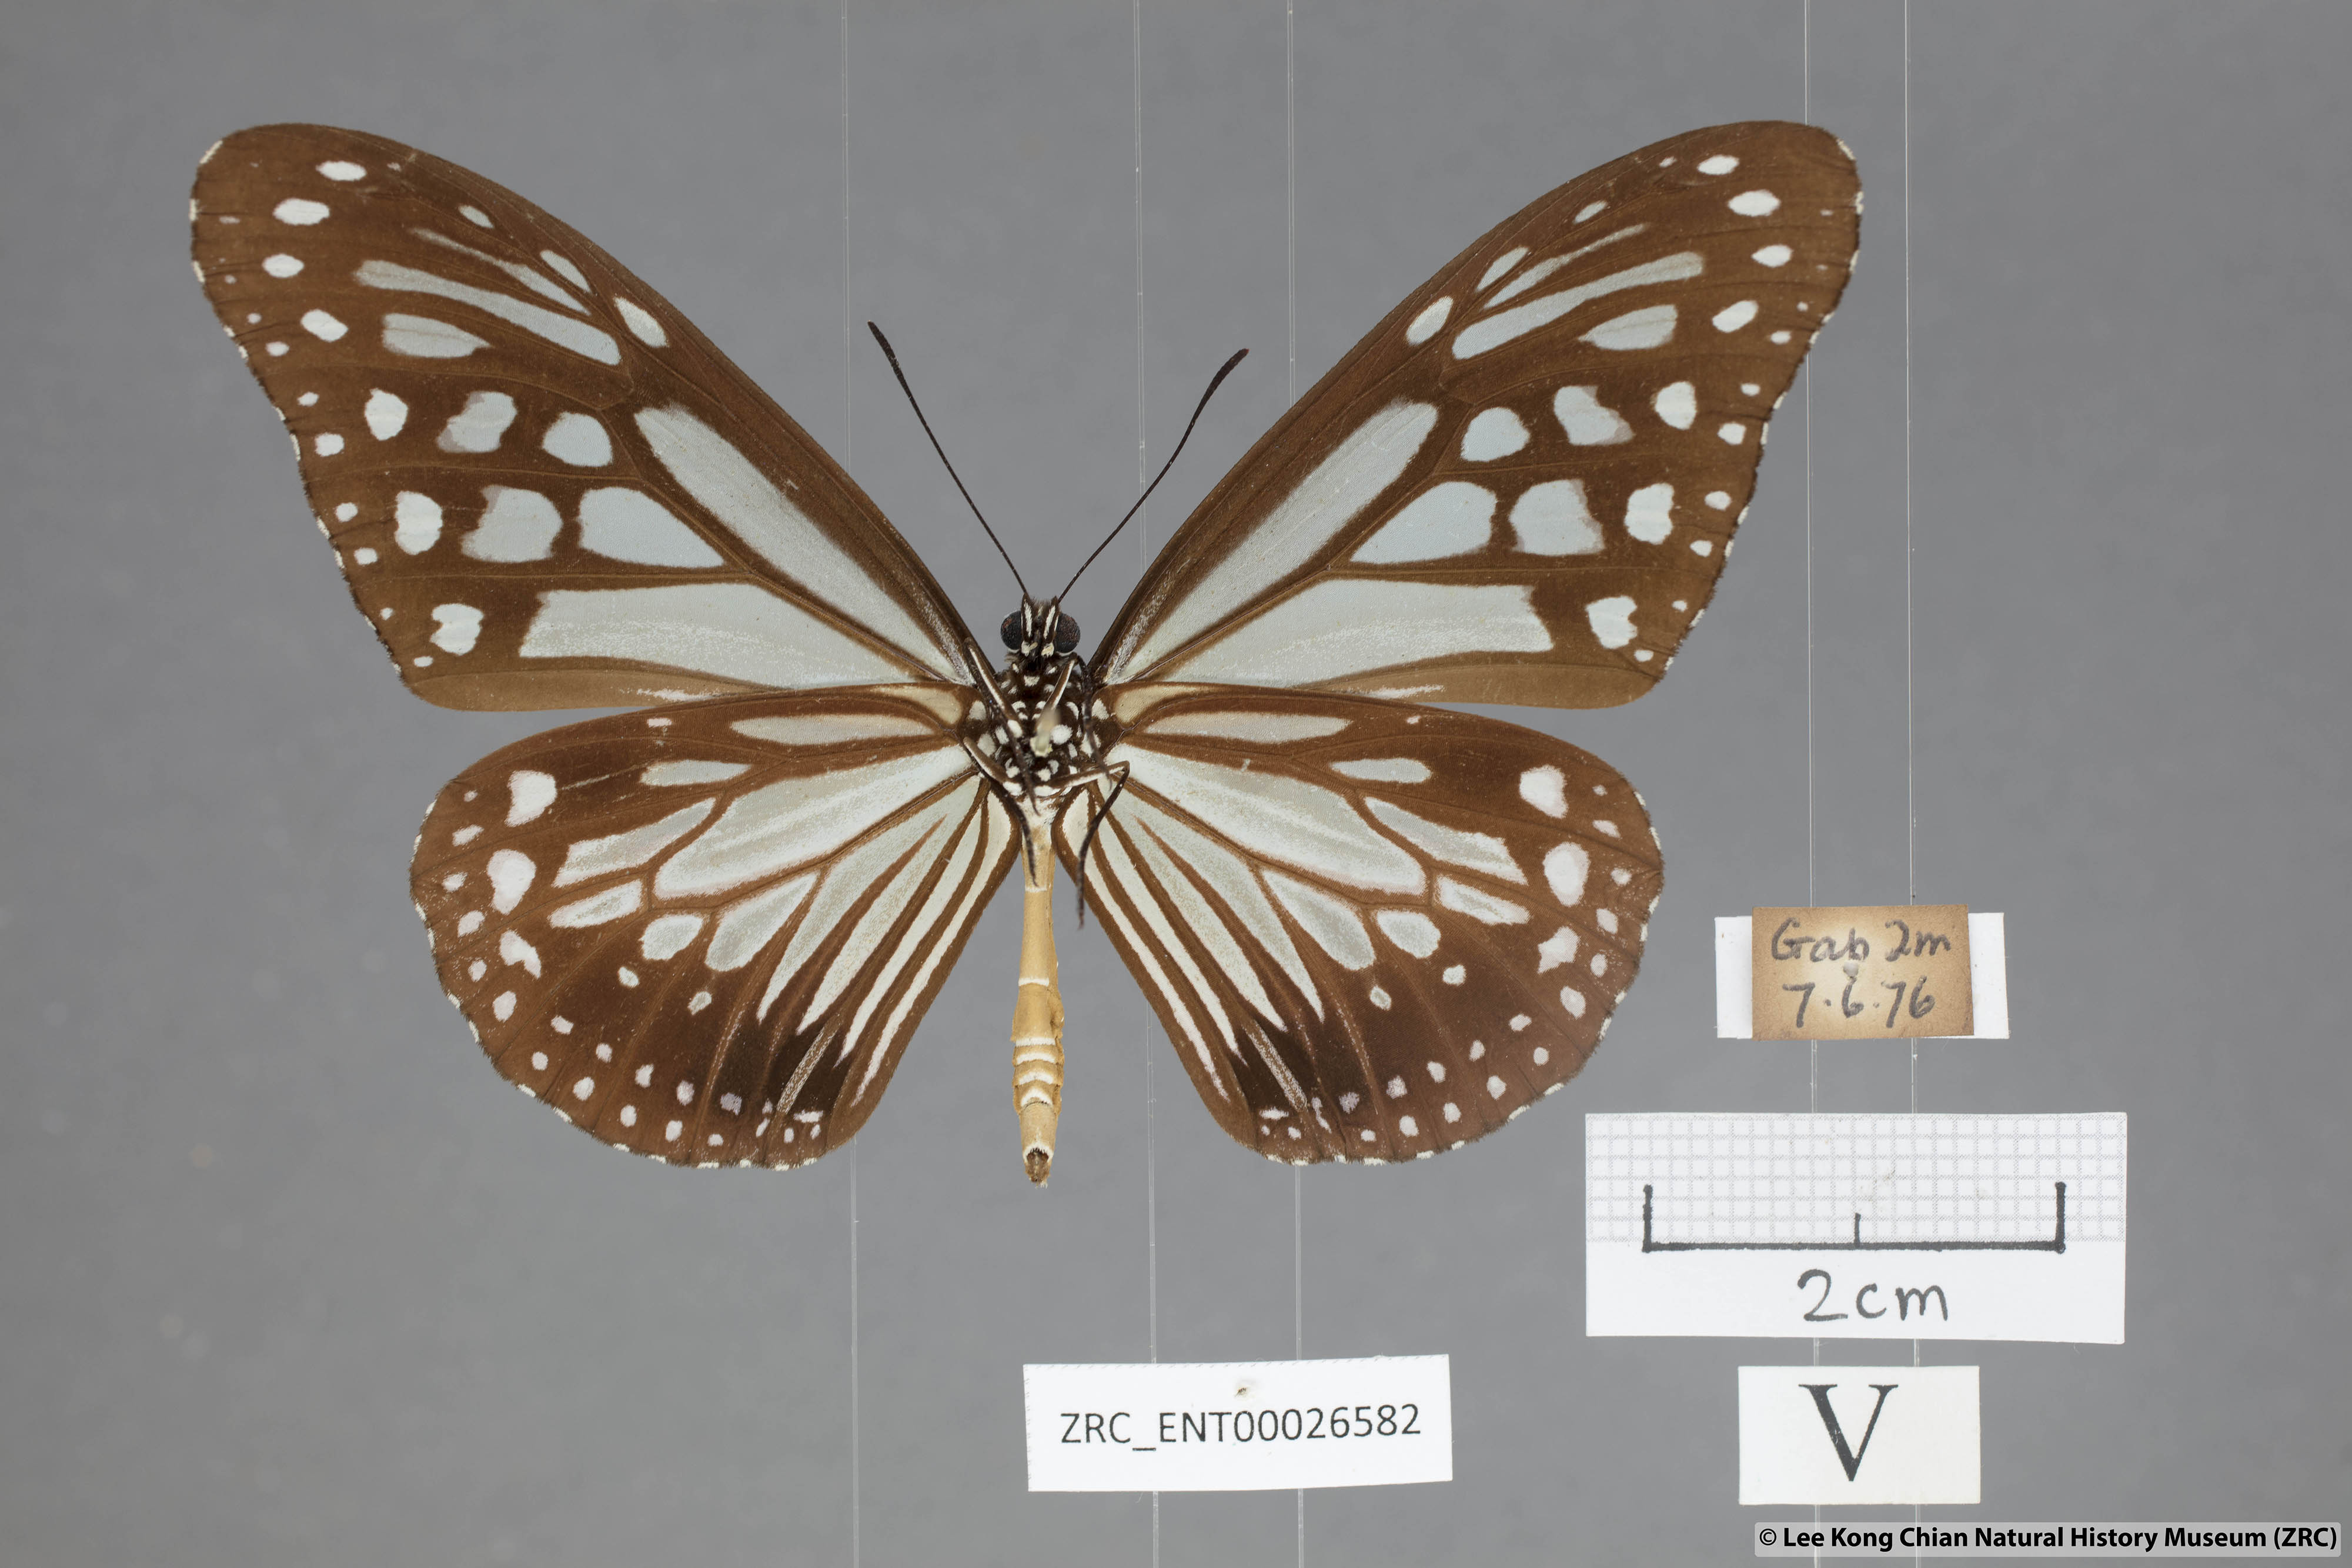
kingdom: Animalia
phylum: Arthropoda
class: Insecta
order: Lepidoptera
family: Nymphalidae
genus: Parantica
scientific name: Parantica melaneus
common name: Chocolate tiger
